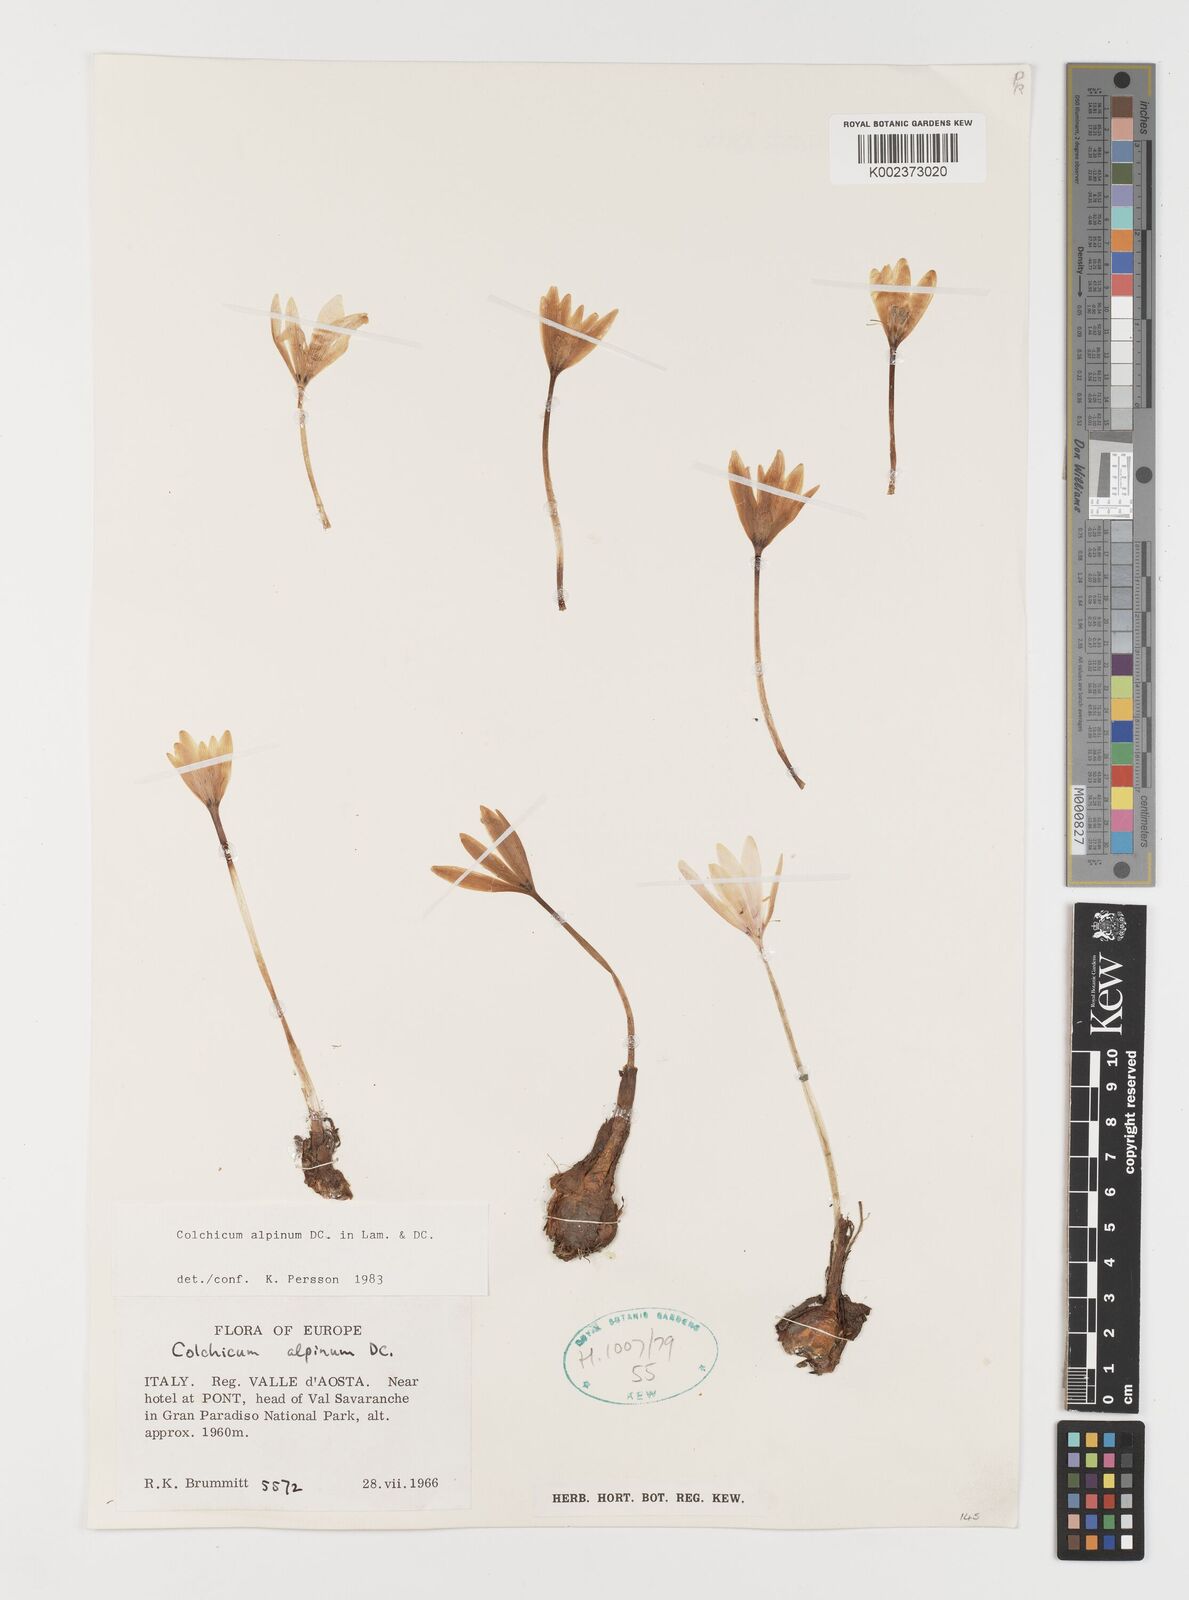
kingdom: Plantae
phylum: Tracheophyta
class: Liliopsida
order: Liliales
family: Colchicaceae
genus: Colchicum
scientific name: Colchicum alpinum
